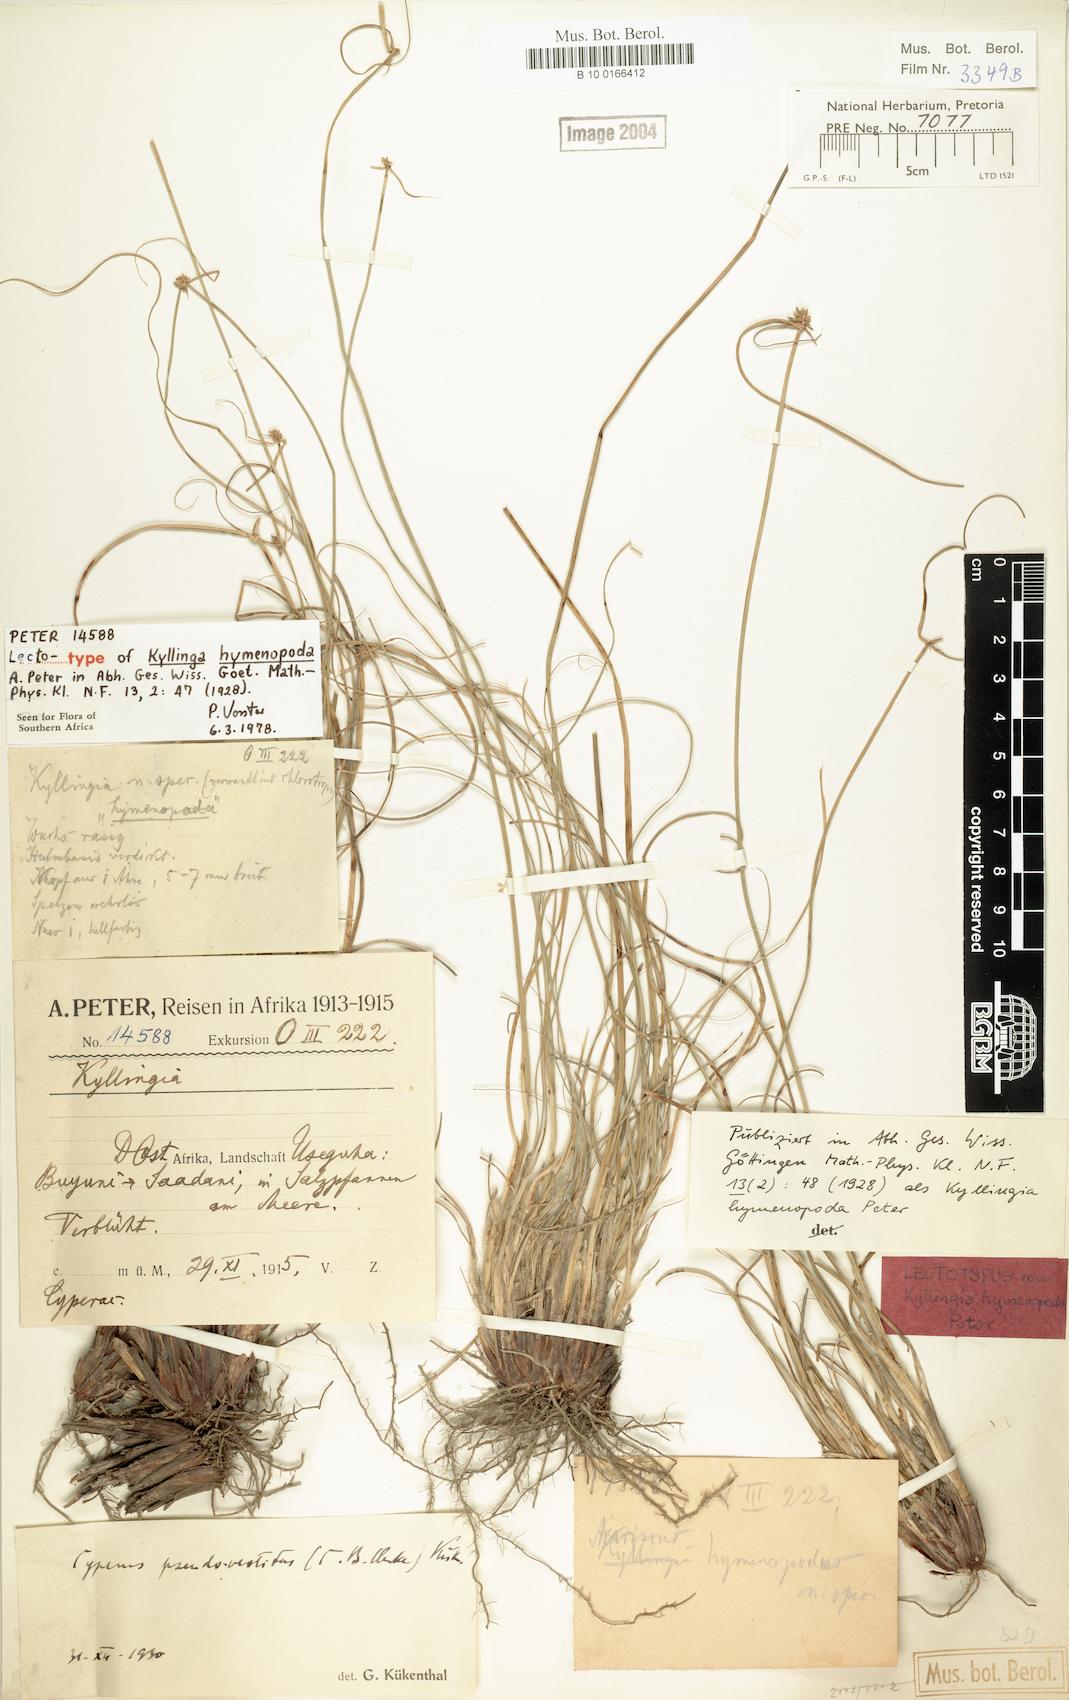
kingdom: Plantae
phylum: Tracheophyta
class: Liliopsida
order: Poales
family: Cyperaceae
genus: Cyperus
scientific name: Cyperus pseudovestitus
